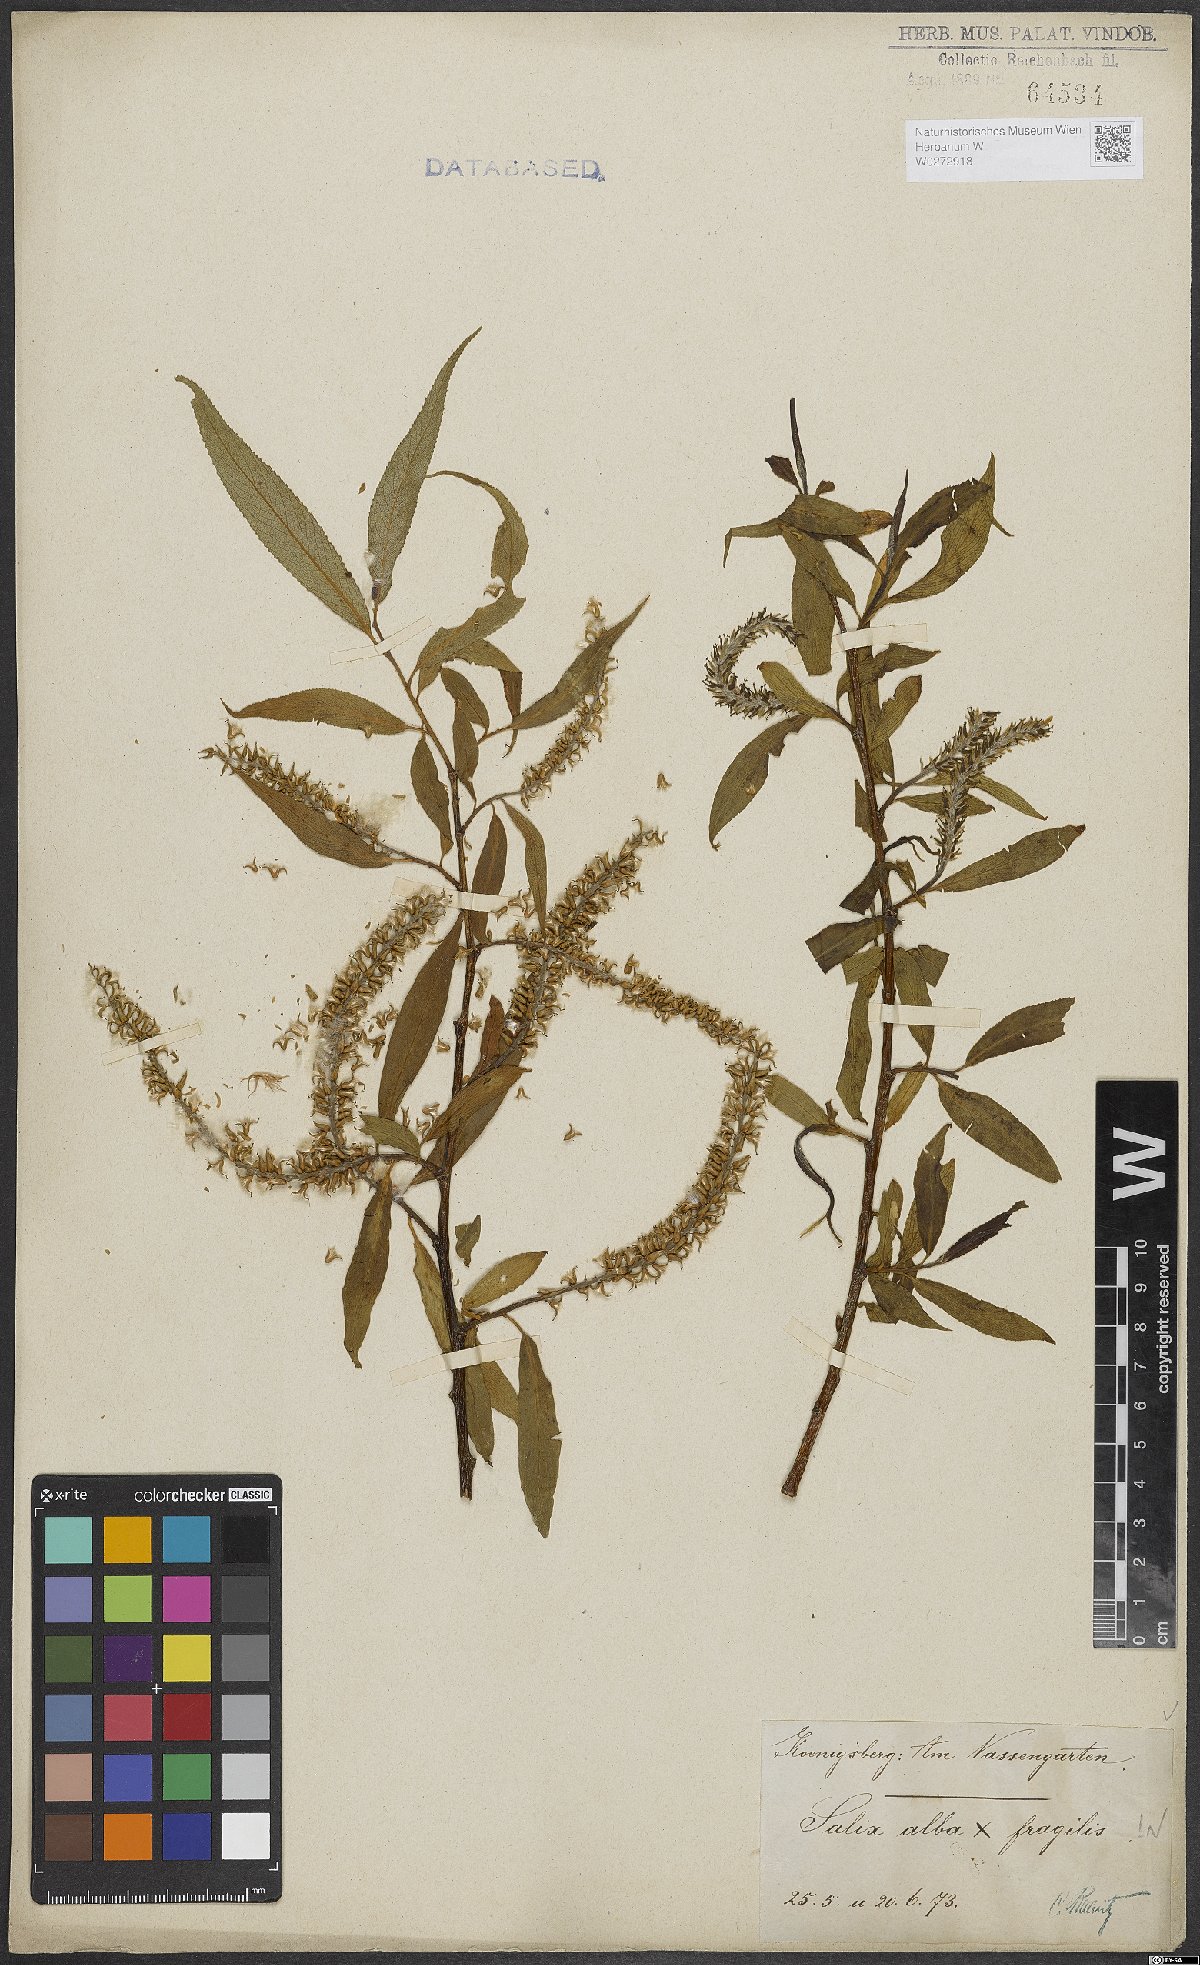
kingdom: Plantae
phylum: Tracheophyta
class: Magnoliopsida
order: Malpighiales
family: Salicaceae
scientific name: Salicaceae
